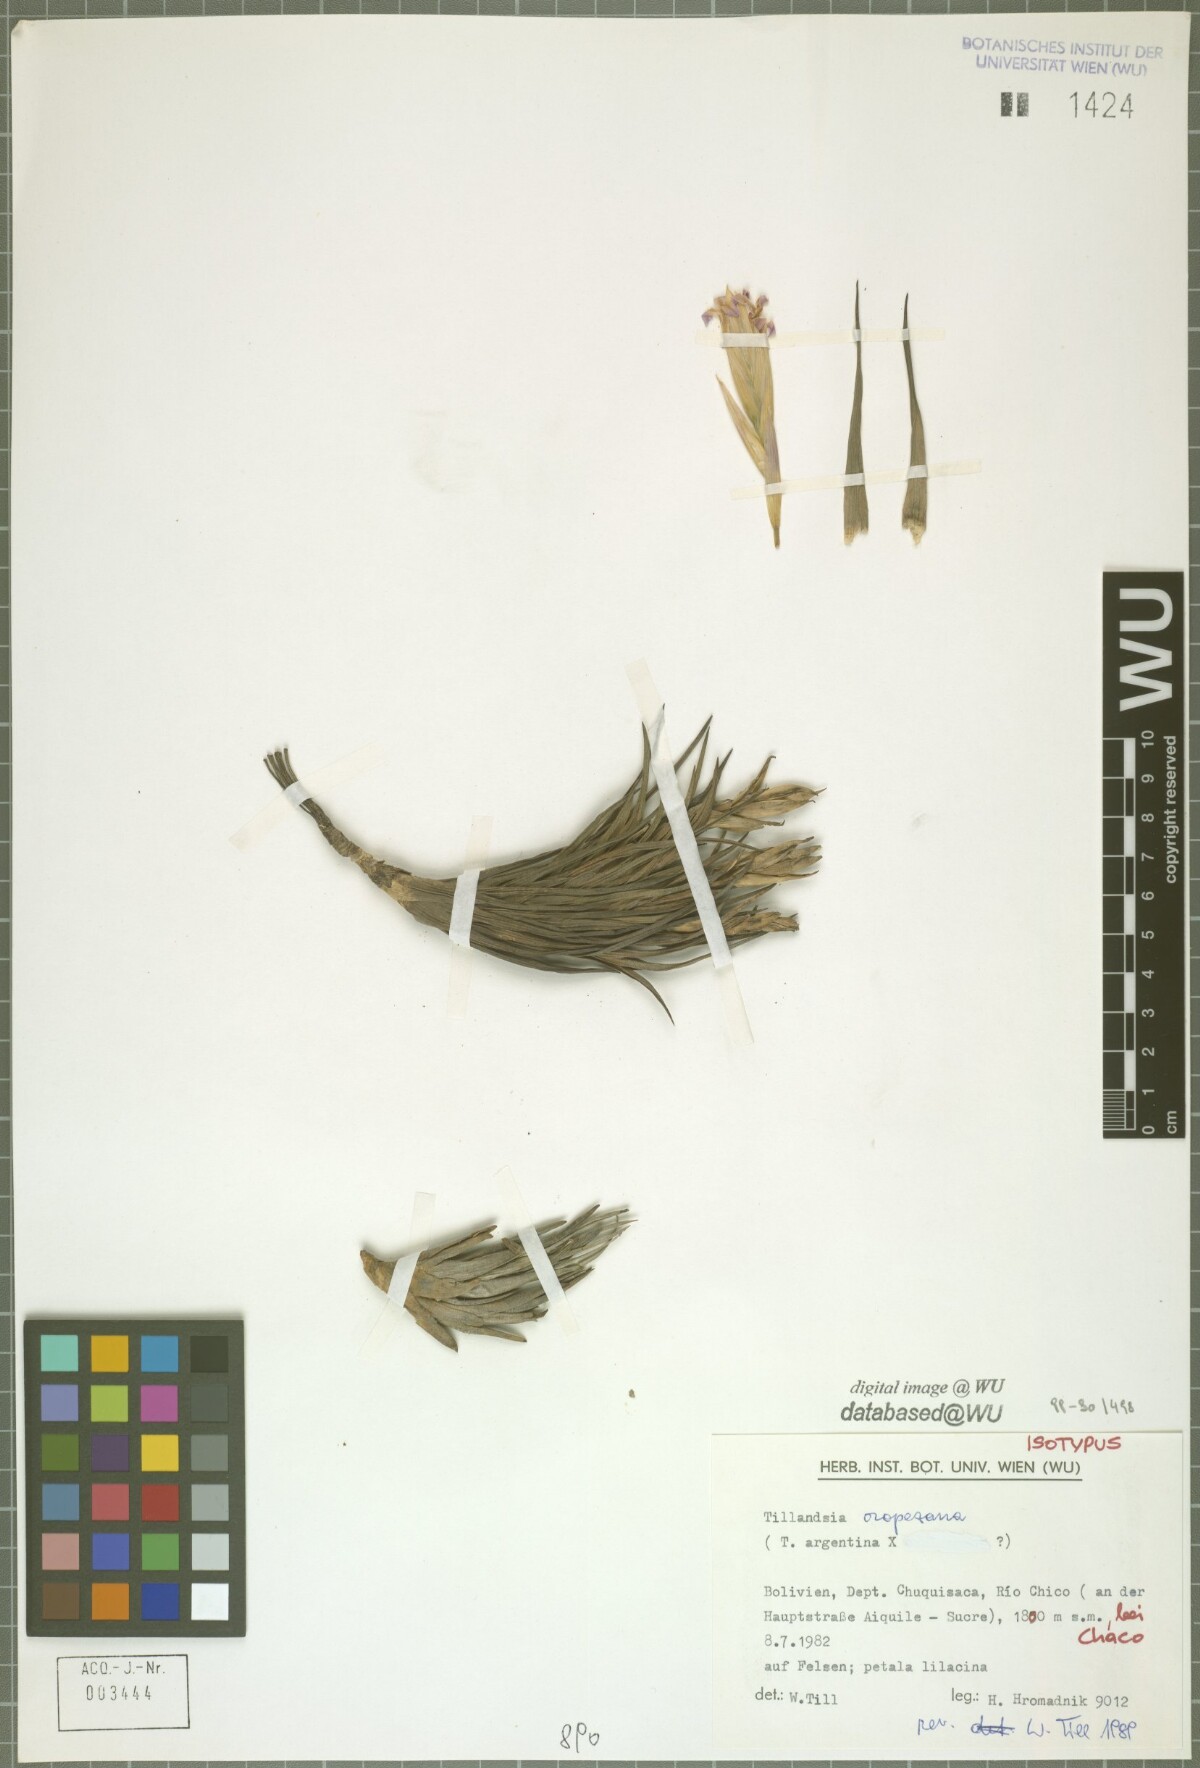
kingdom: Plantae
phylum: Tracheophyta
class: Liliopsida
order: Poales
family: Bromeliaceae
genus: Tillandsia
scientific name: Tillandsia oropezana
